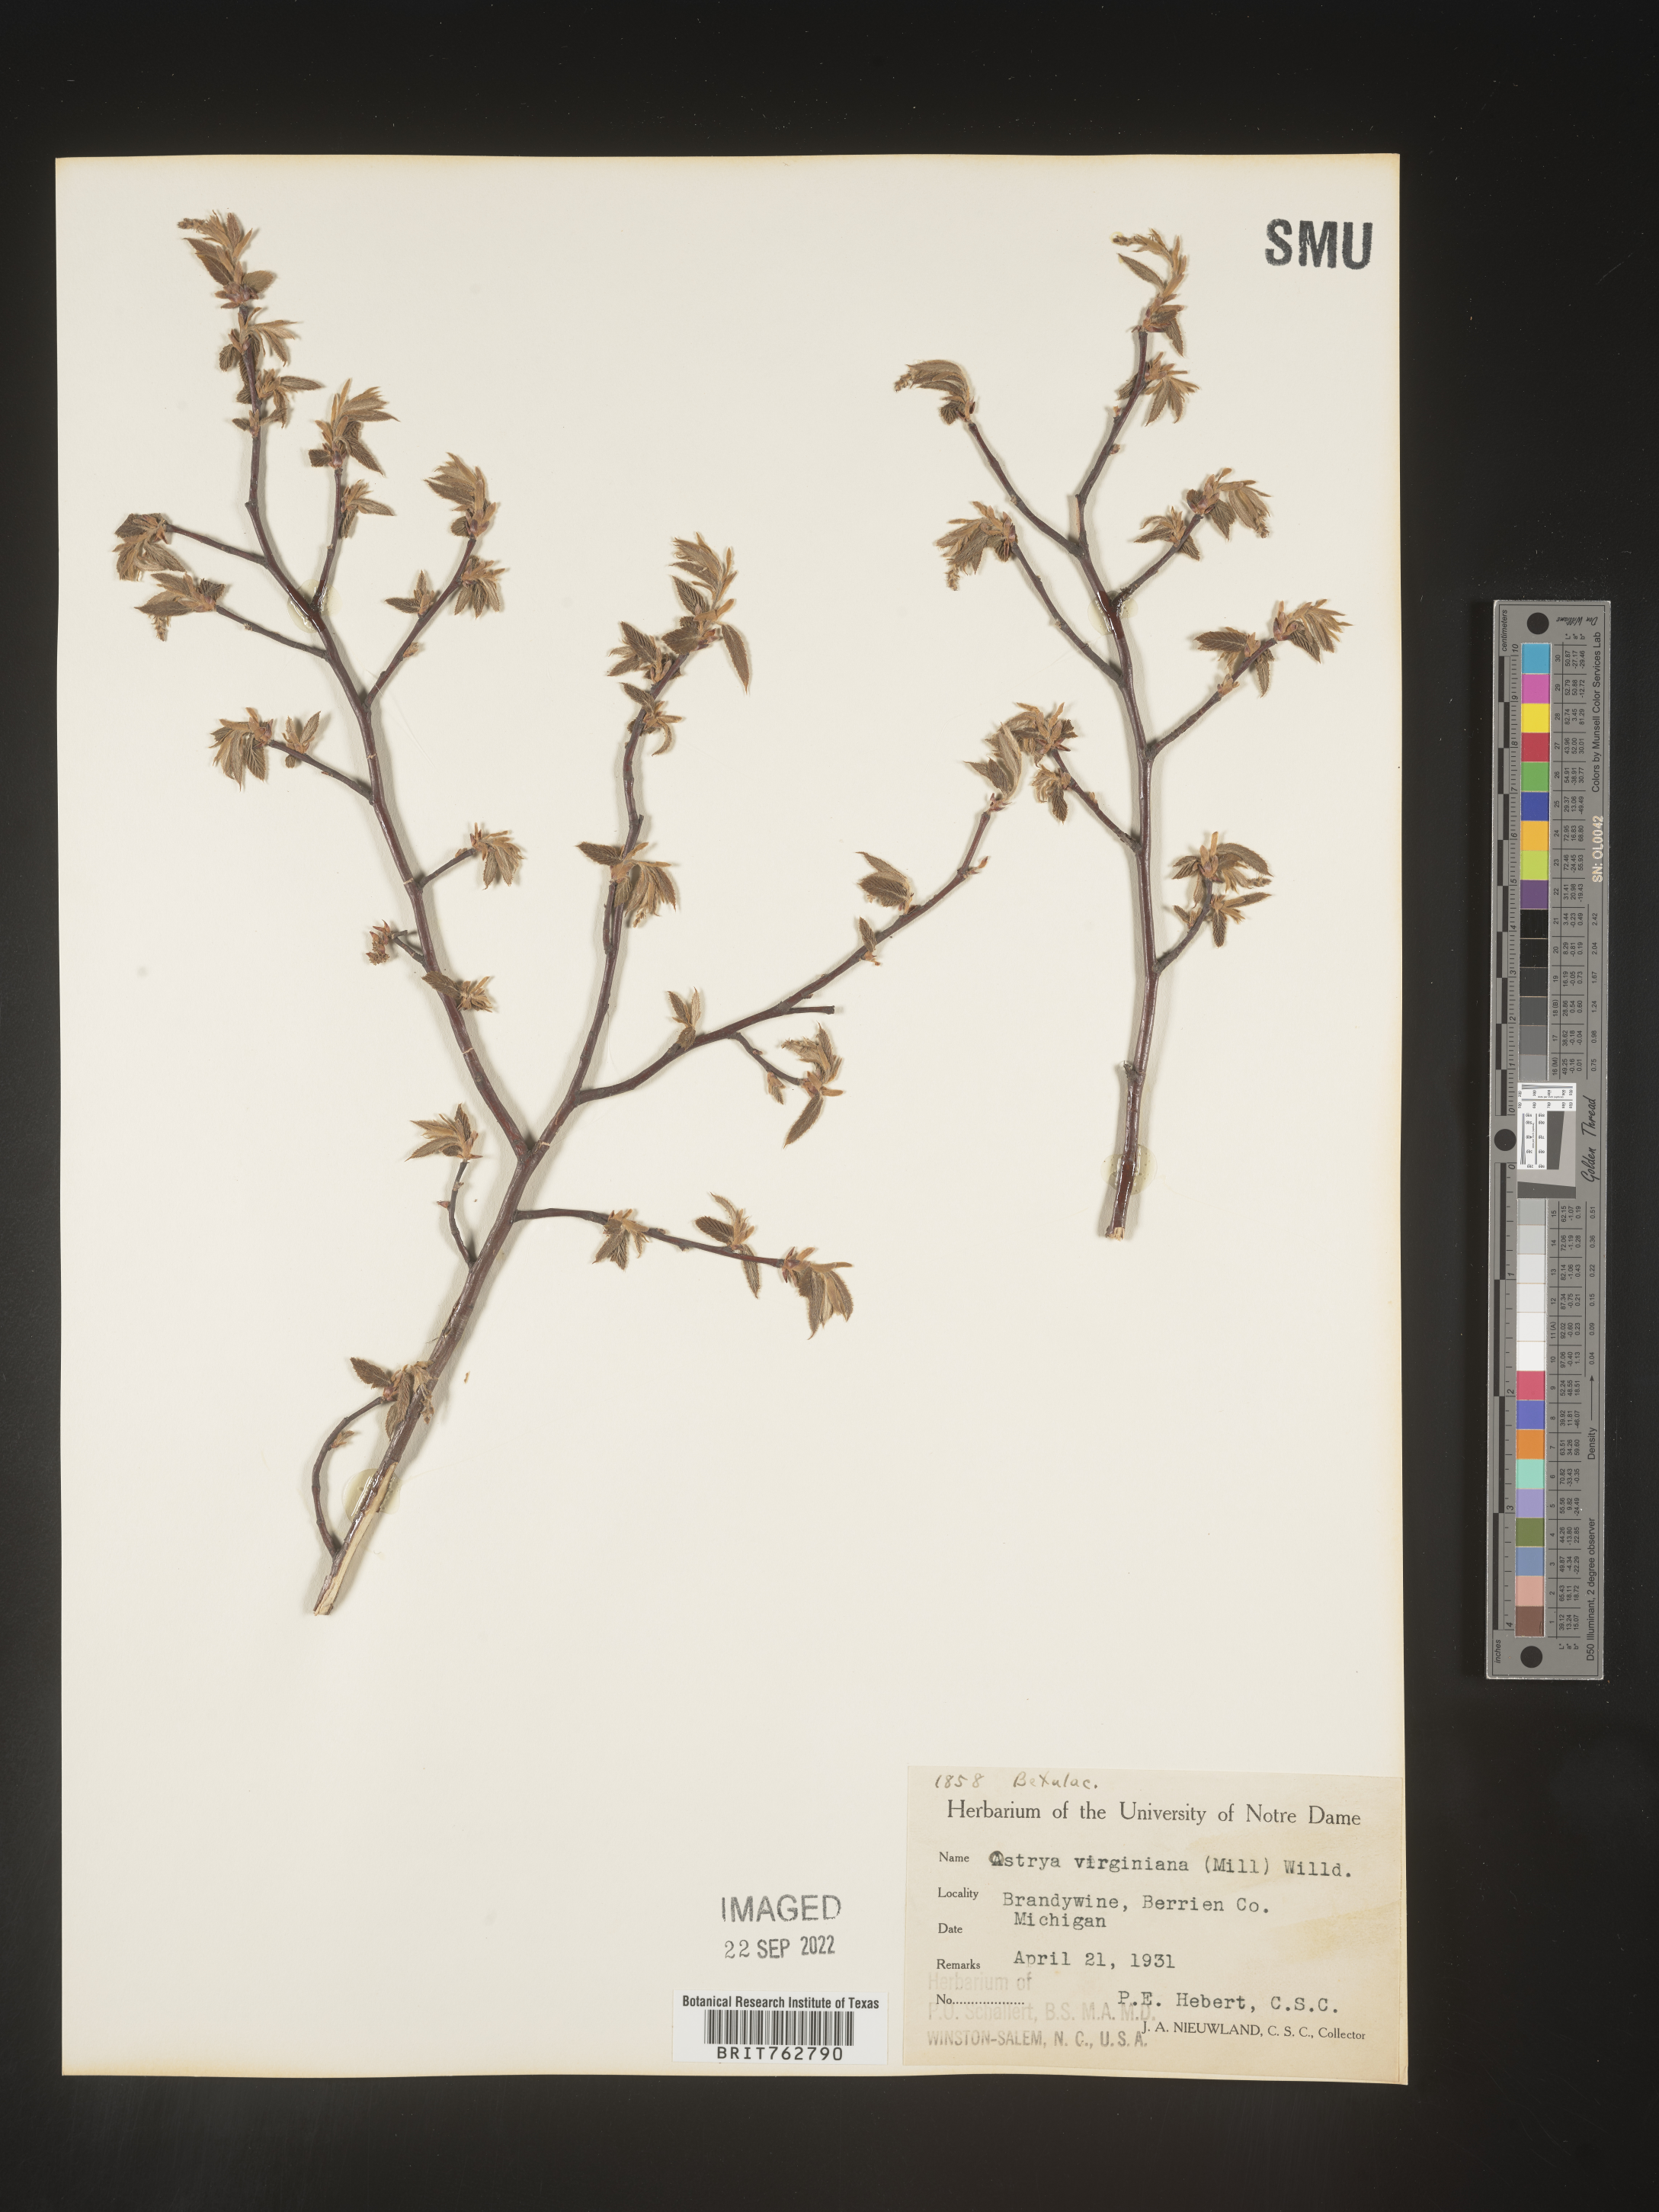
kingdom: Plantae
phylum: Tracheophyta
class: Magnoliopsida
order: Fagales
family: Betulaceae
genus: Ostrya
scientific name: Ostrya virginiana
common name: Ironwood
